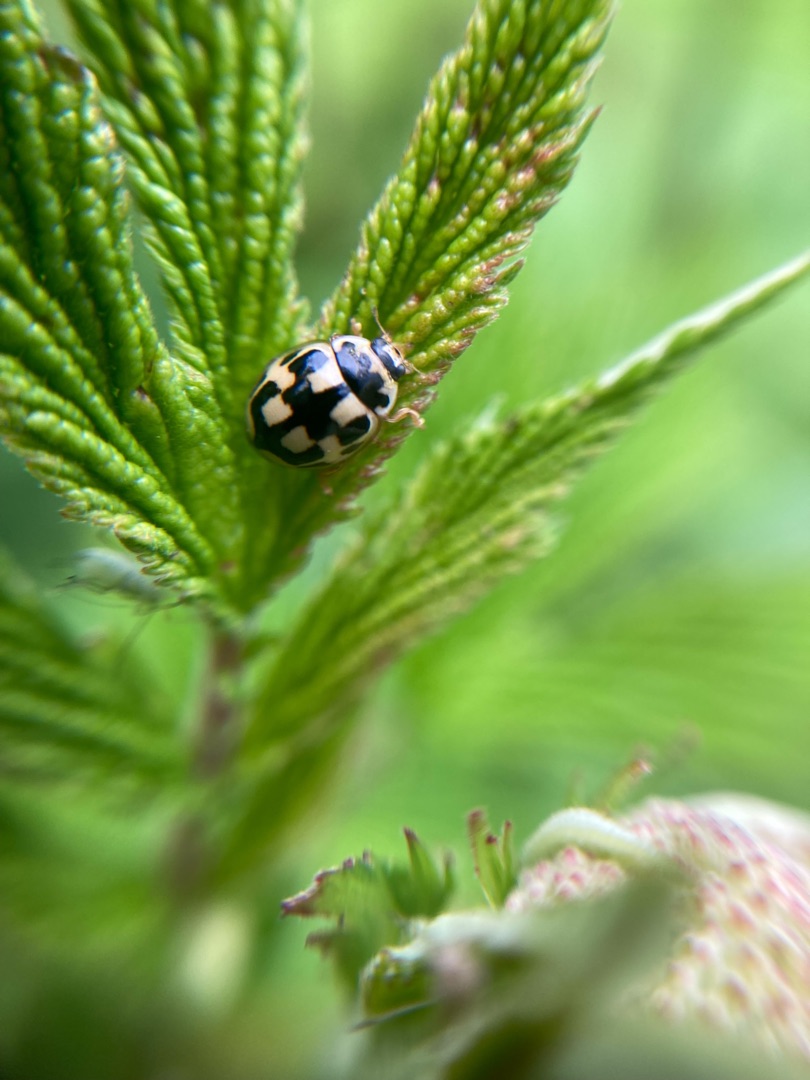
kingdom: Animalia
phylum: Arthropoda
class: Insecta
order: Coleoptera
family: Coccinellidae
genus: Propylaea
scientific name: Propylaea quatuordecimpunctata
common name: Skakbræt
